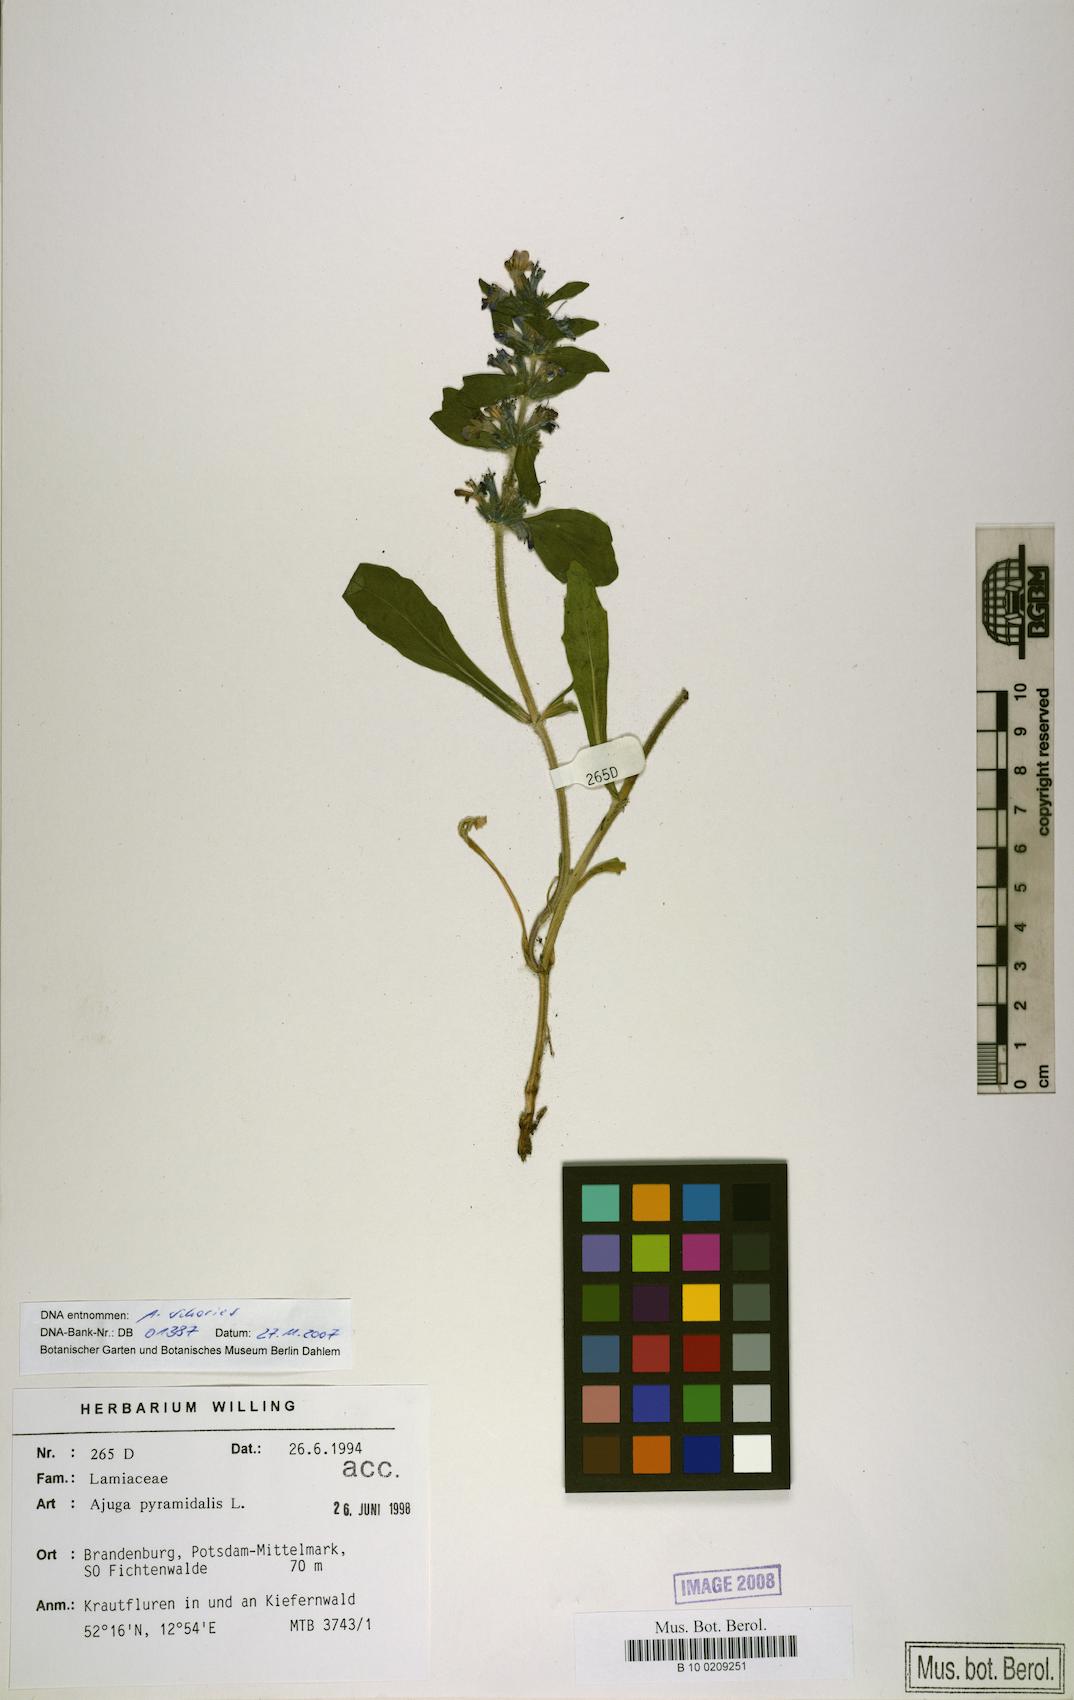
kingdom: Plantae
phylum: Tracheophyta
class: Magnoliopsida
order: Lamiales
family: Lamiaceae
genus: Ajuga
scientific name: Ajuga genevensis
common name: Blue bugle
